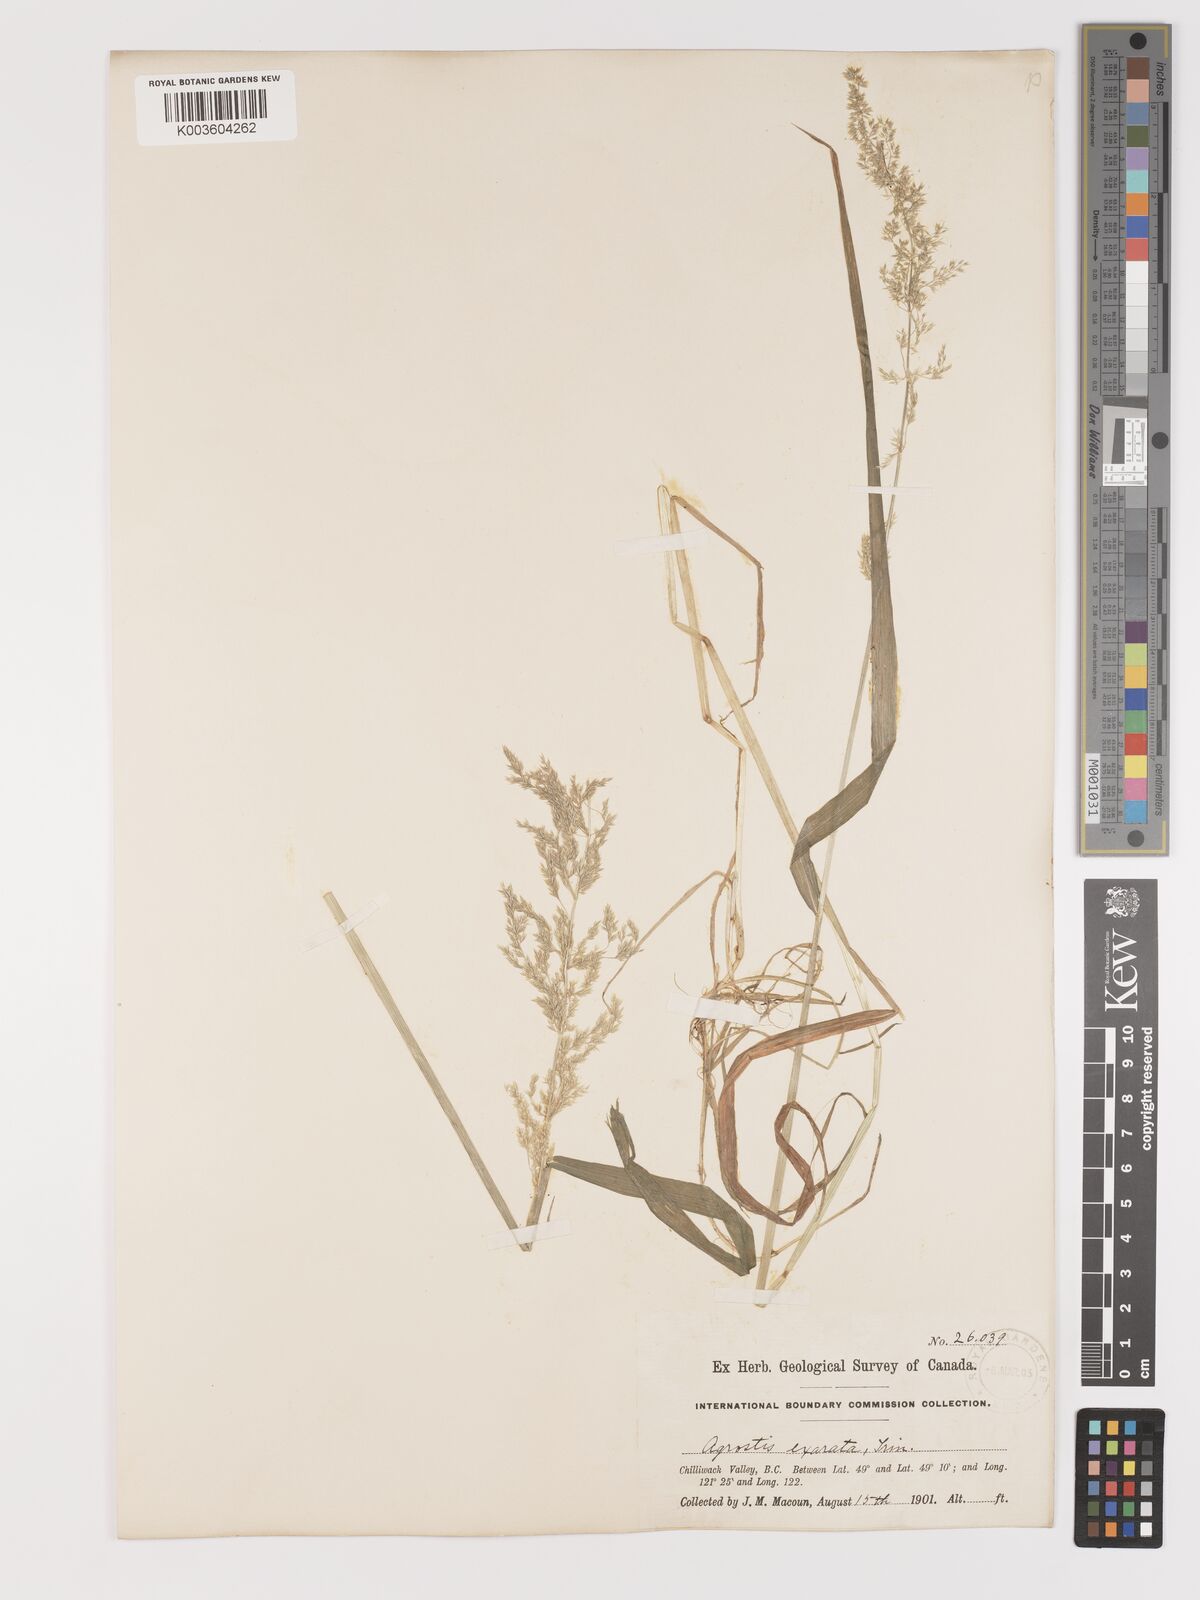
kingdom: Plantae
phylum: Tracheophyta
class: Liliopsida
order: Poales
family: Poaceae
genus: Agrostis
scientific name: Agrostis exarata
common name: Spike bent
